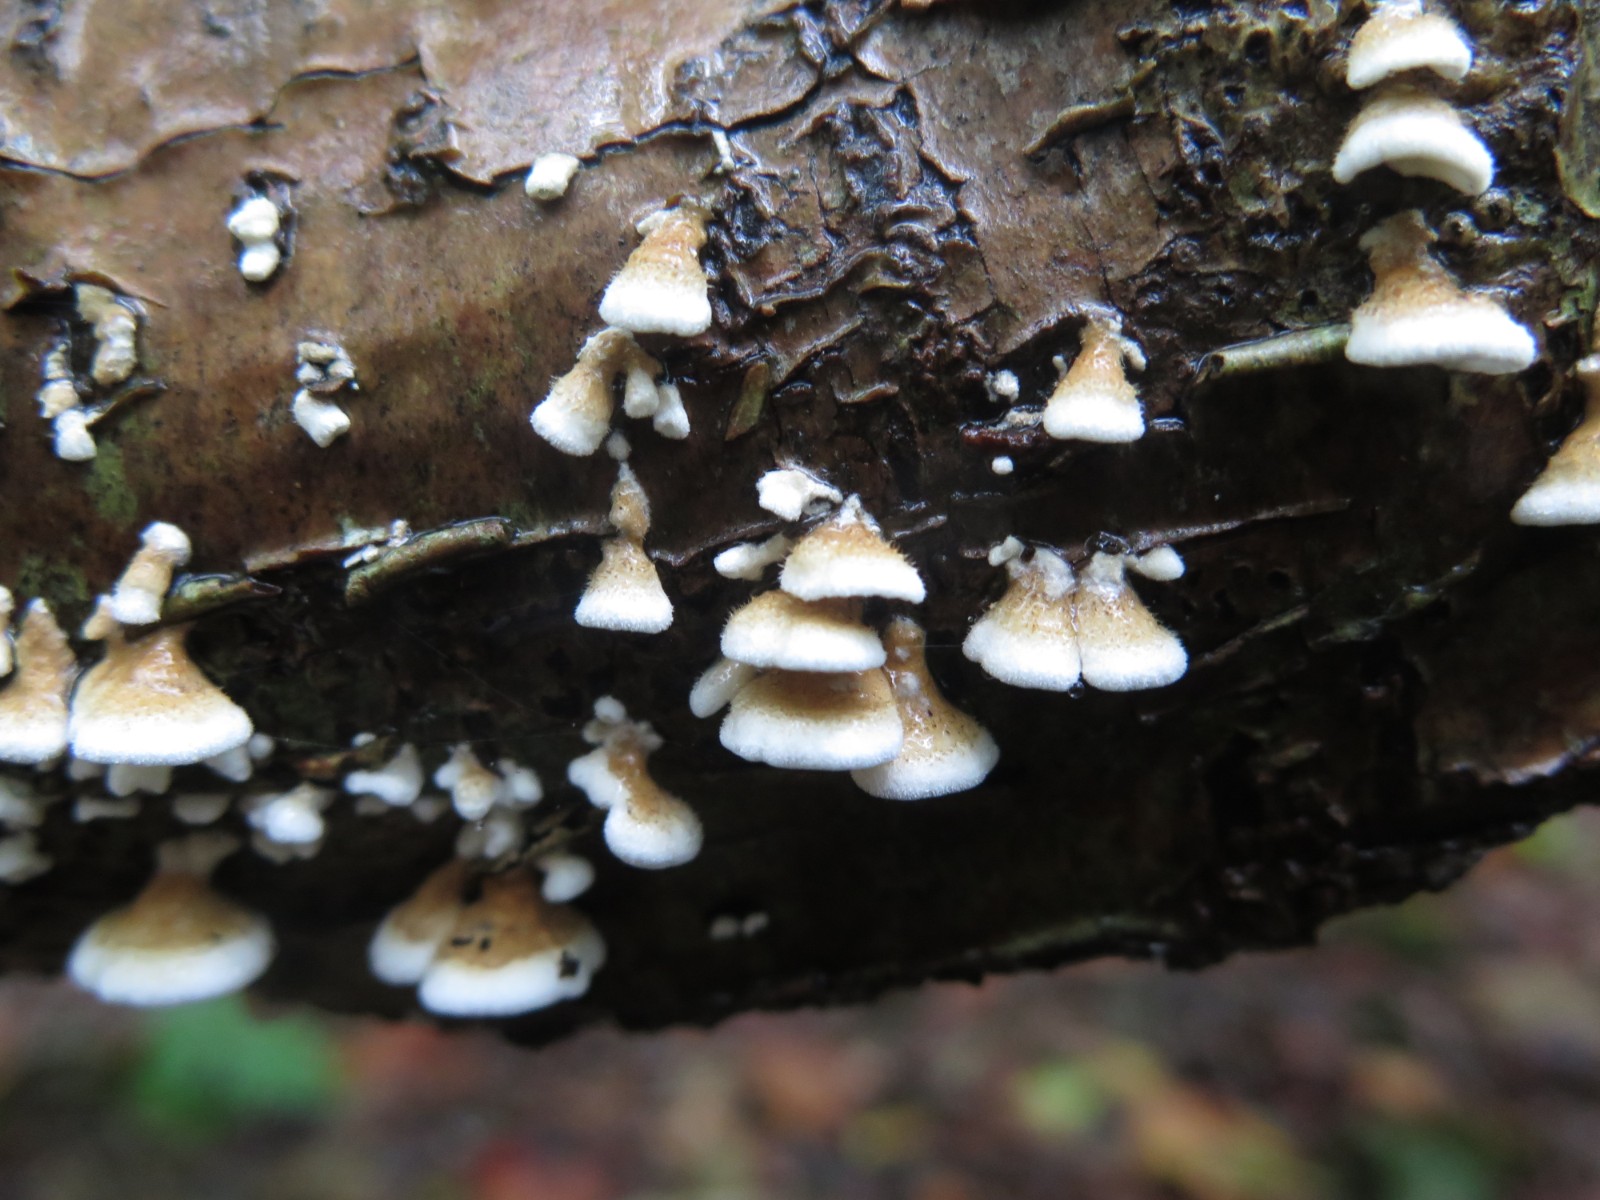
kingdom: Fungi
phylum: Basidiomycota
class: Agaricomycetes
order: Amylocorticiales
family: Amylocorticiaceae
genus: Plicaturopsis
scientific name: Plicaturopsis crispa
